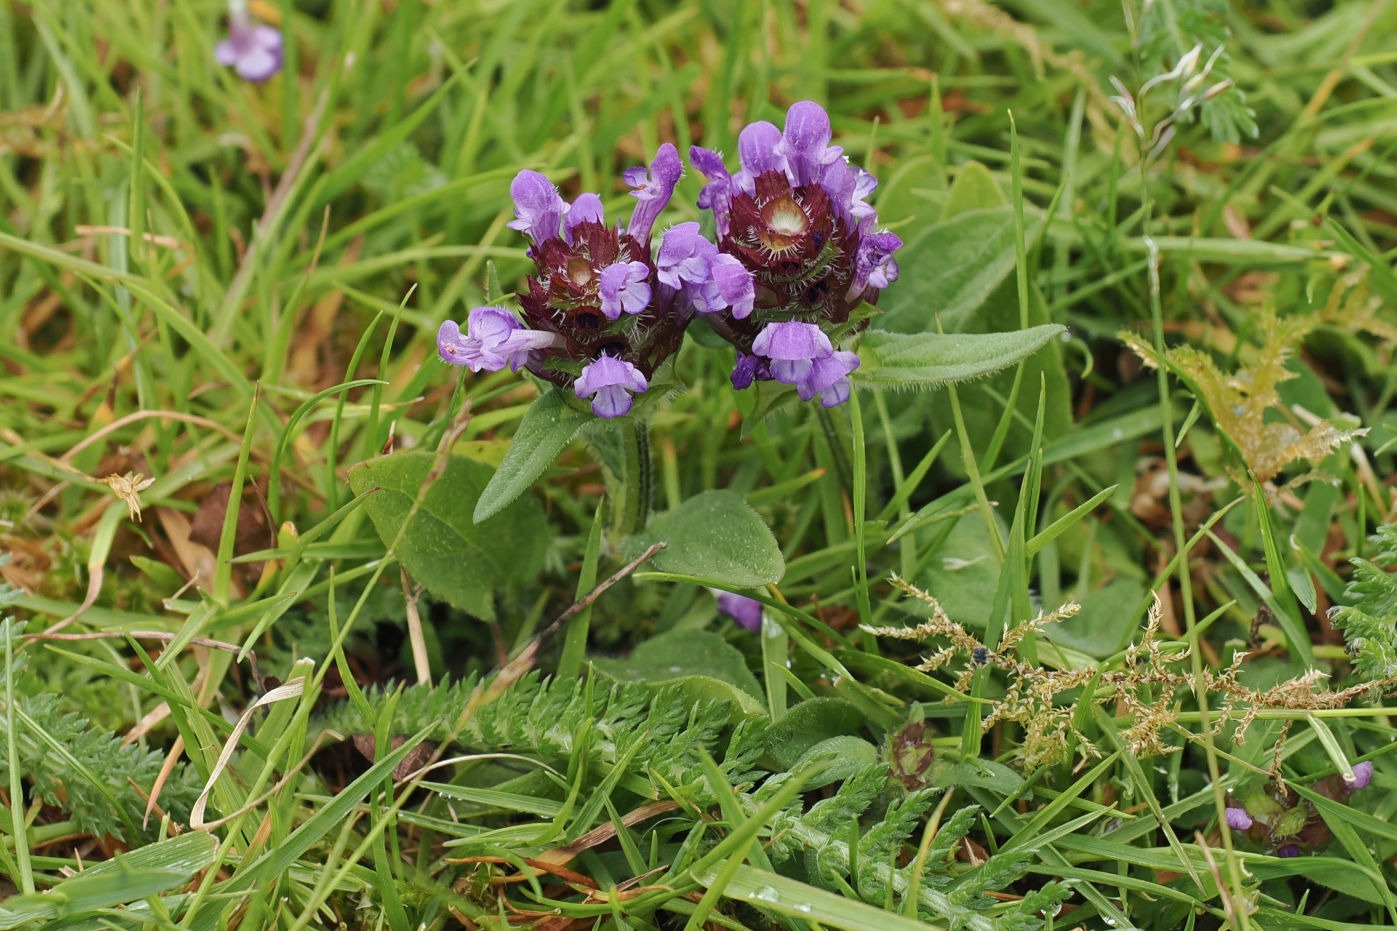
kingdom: Plantae
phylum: Tracheophyta
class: Magnoliopsida
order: Lamiales
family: Lamiaceae
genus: Prunella
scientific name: Prunella vulgaris
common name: Almindelig brunelle
